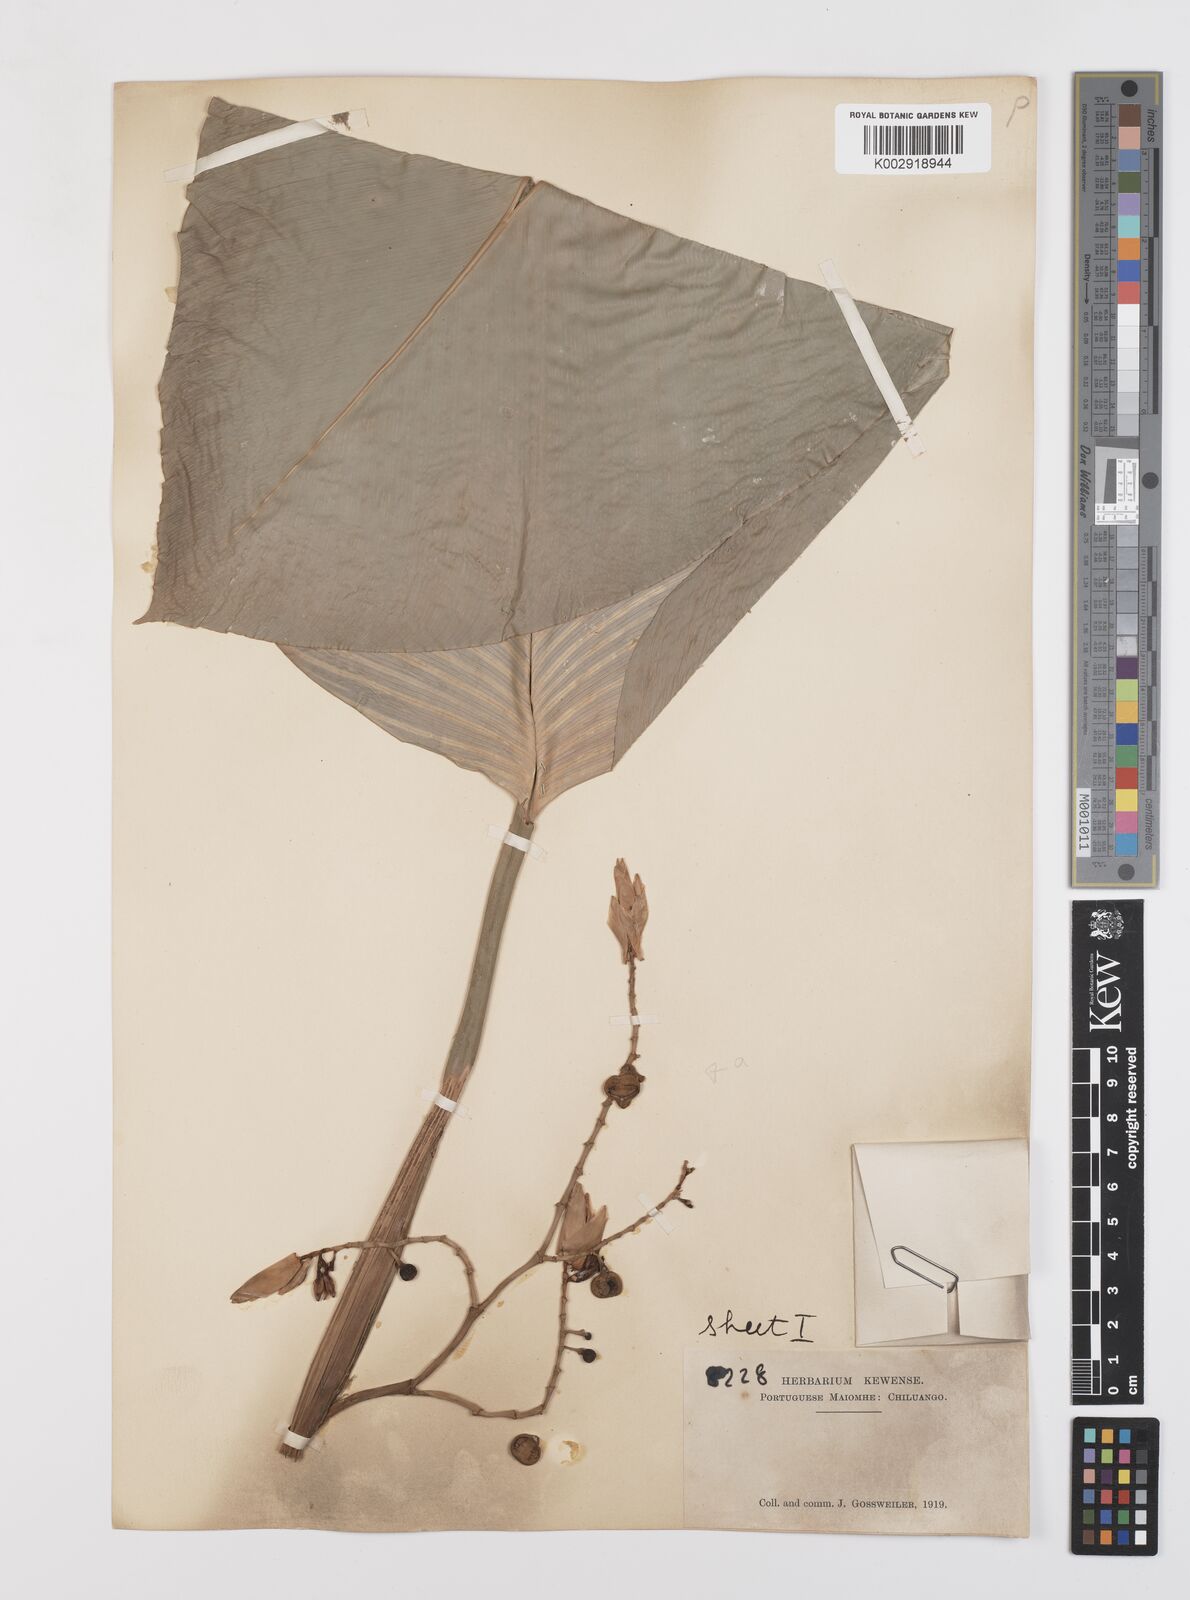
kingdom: Plantae
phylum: Tracheophyta
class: Liliopsida
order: Zingiberales
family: Marantaceae
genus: Megaphrynium
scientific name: Megaphrynium trichogynum
